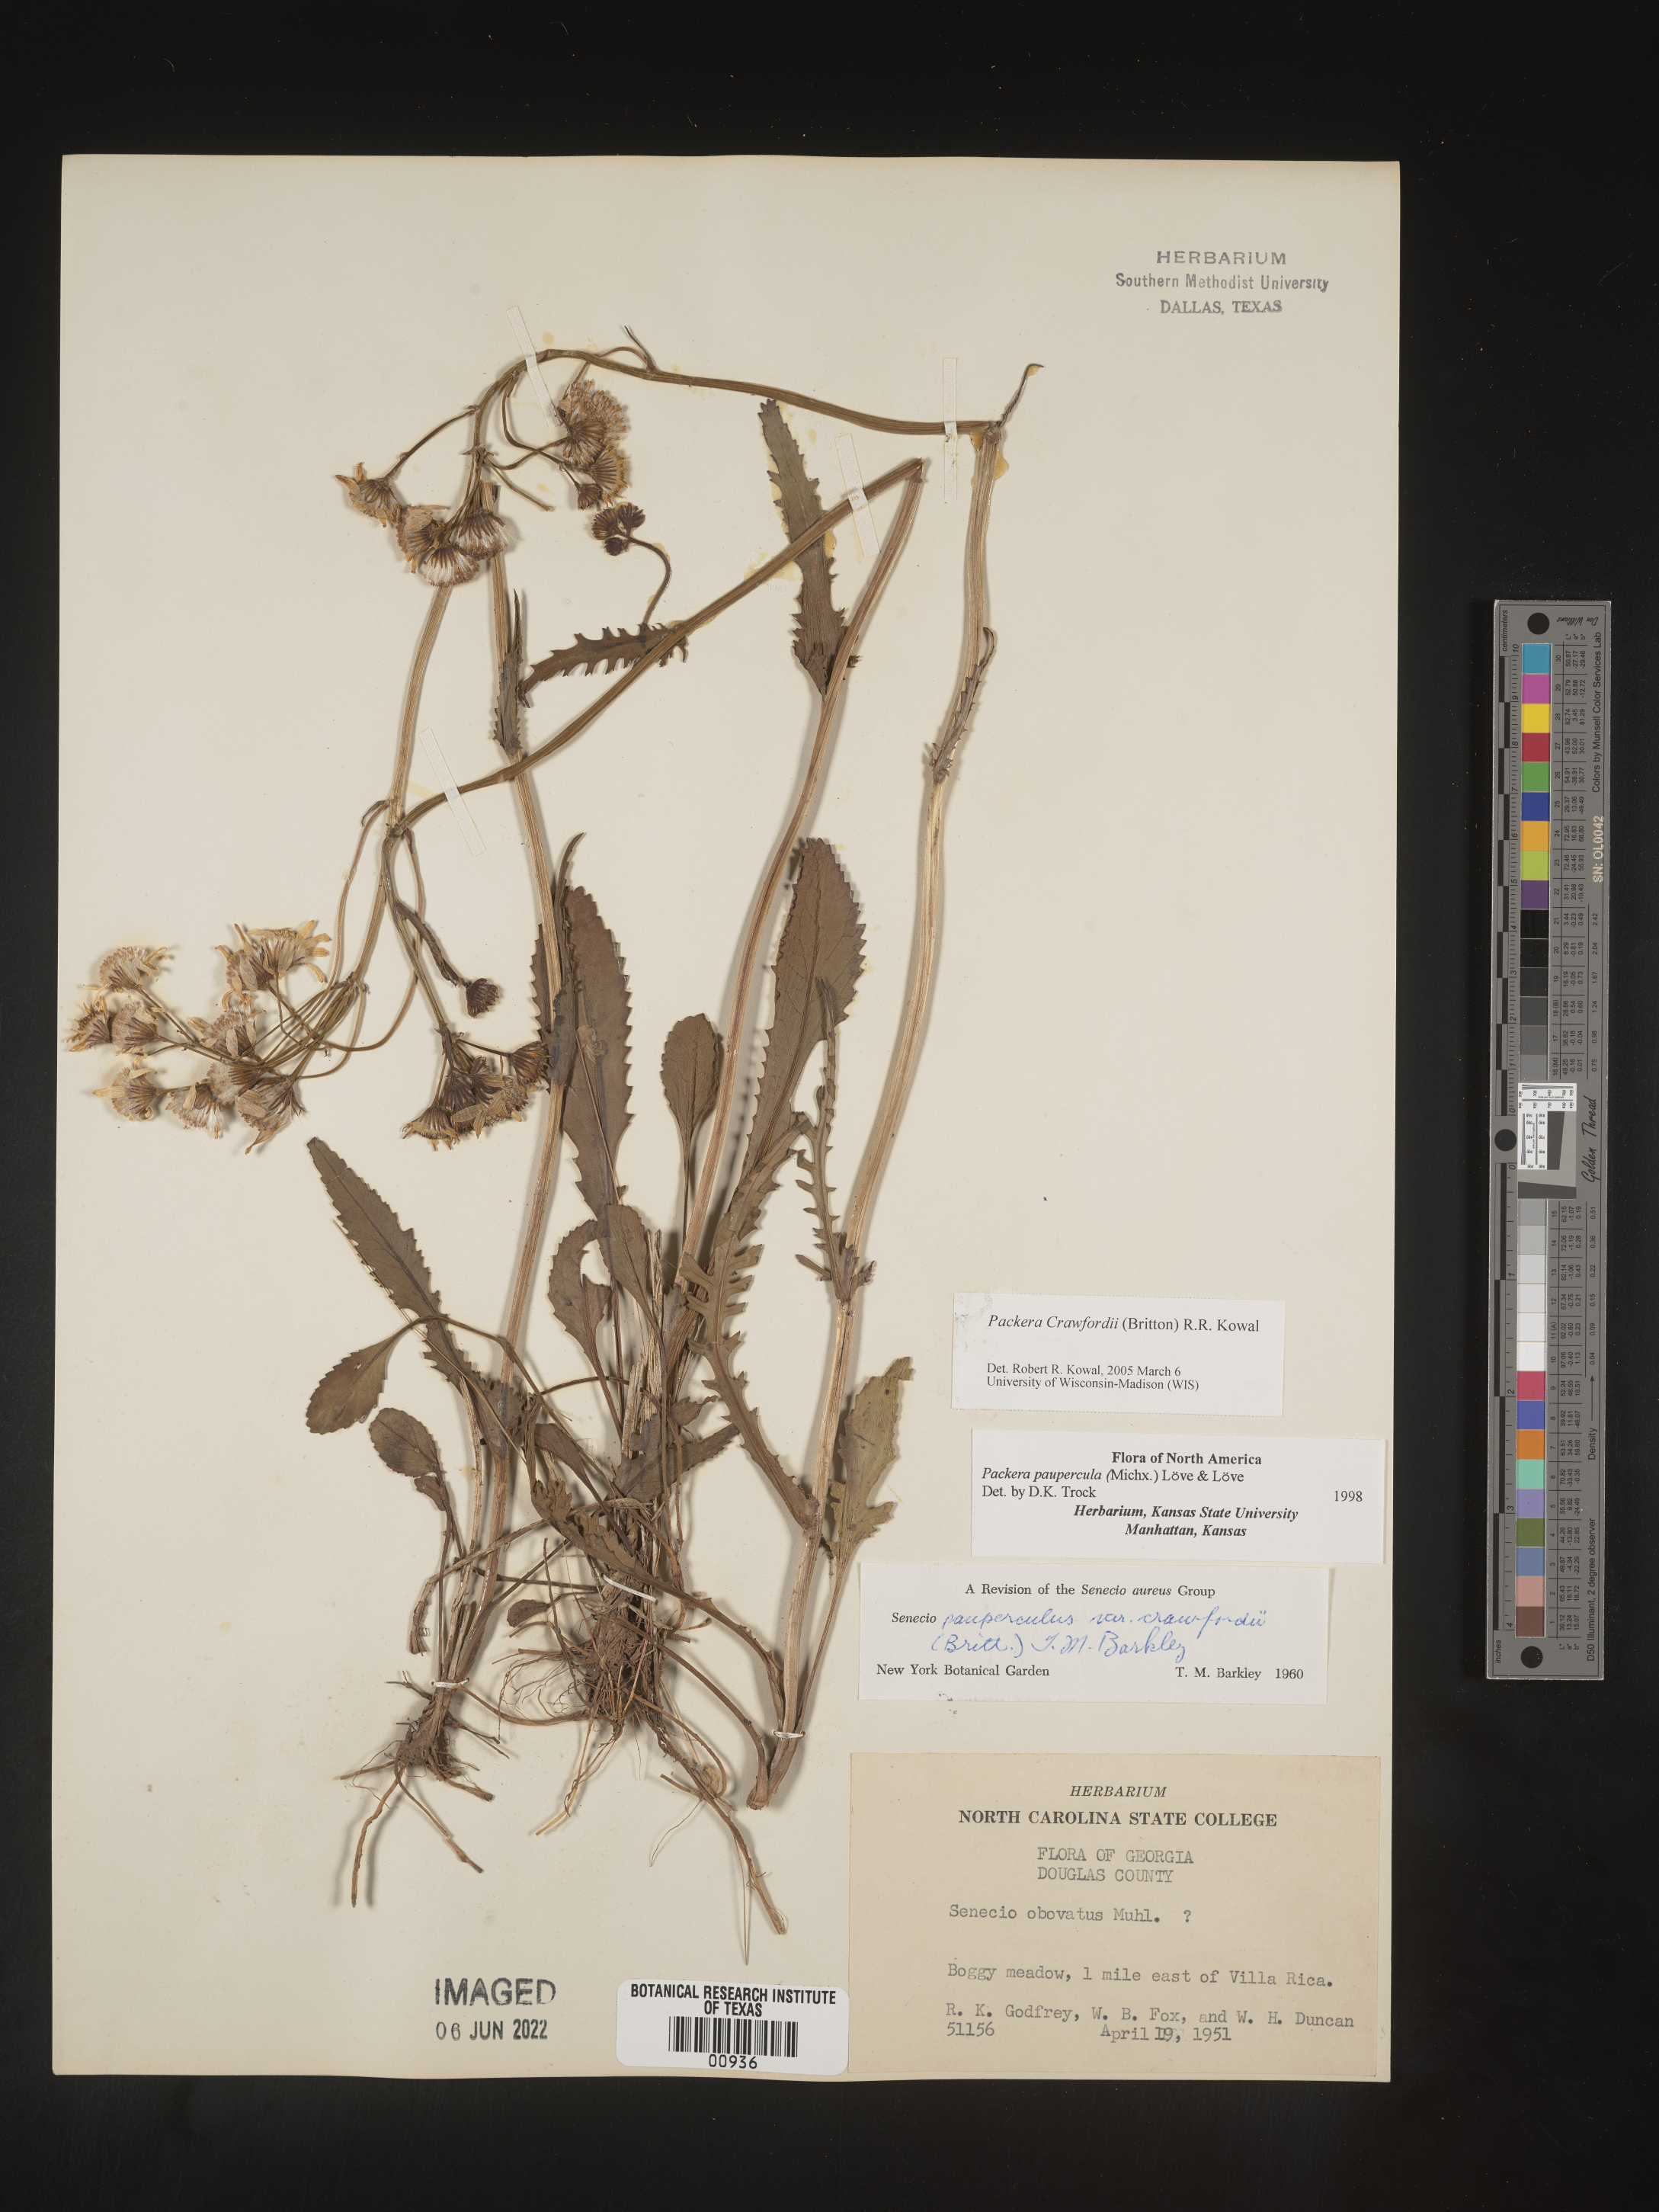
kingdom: Plantae
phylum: Tracheophyta
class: Magnoliopsida
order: Asterales
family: Asteraceae
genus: Packera
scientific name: Packera crawfordii
